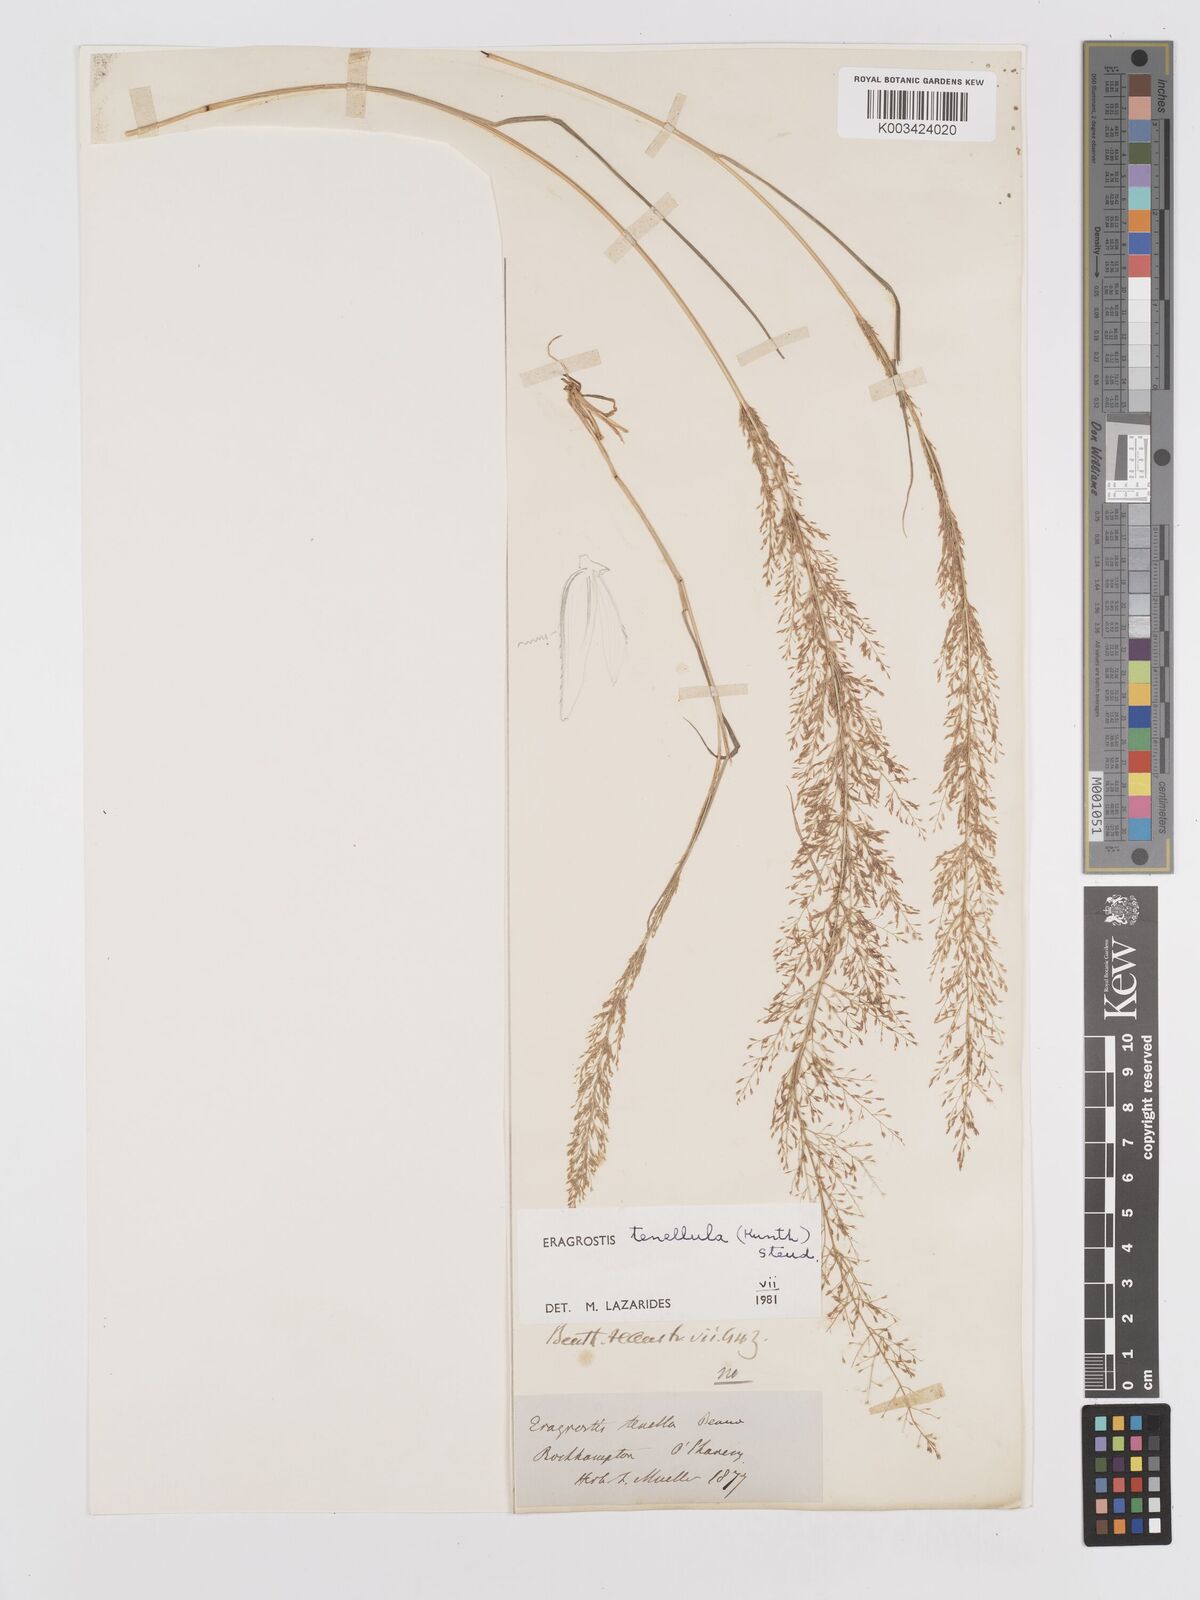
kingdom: Plantae
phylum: Tracheophyta
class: Liliopsida
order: Poales
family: Poaceae
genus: Eragrostis
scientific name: Eragrostis tenellula
